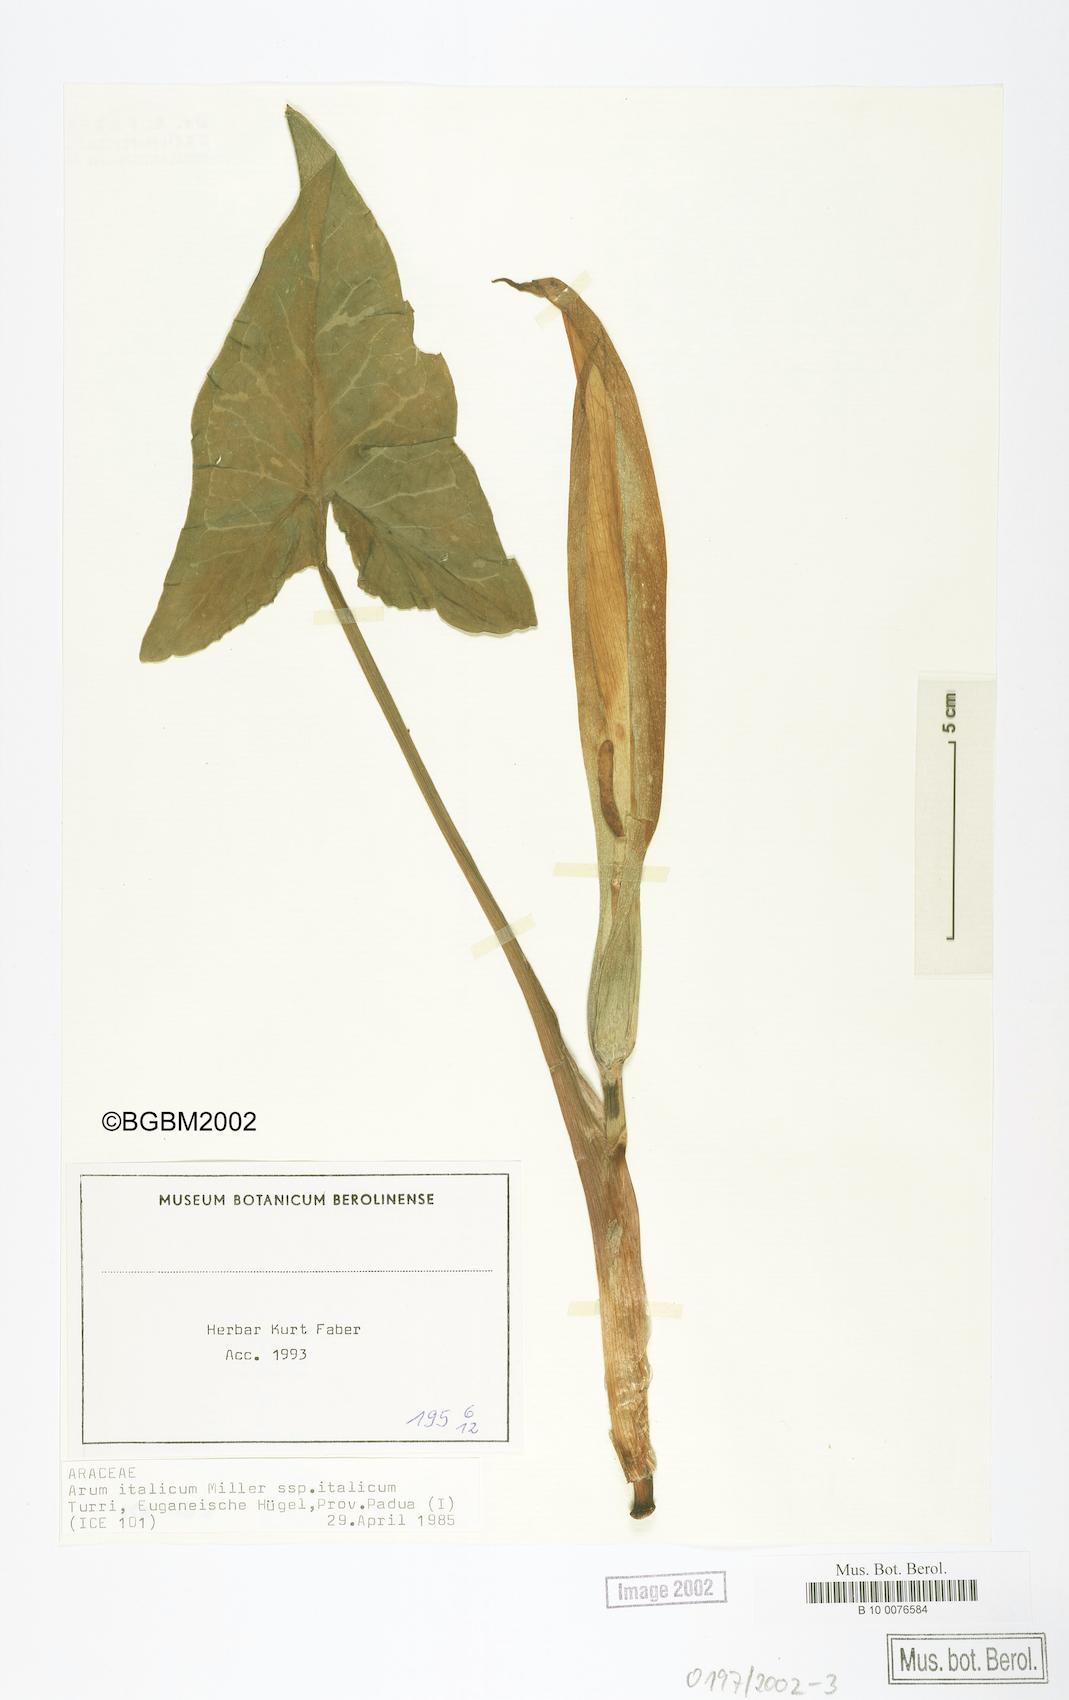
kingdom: Plantae
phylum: Tracheophyta
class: Liliopsida
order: Alismatales
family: Araceae
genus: Arum
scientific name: Arum italicum
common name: Italian lords-and-ladies
